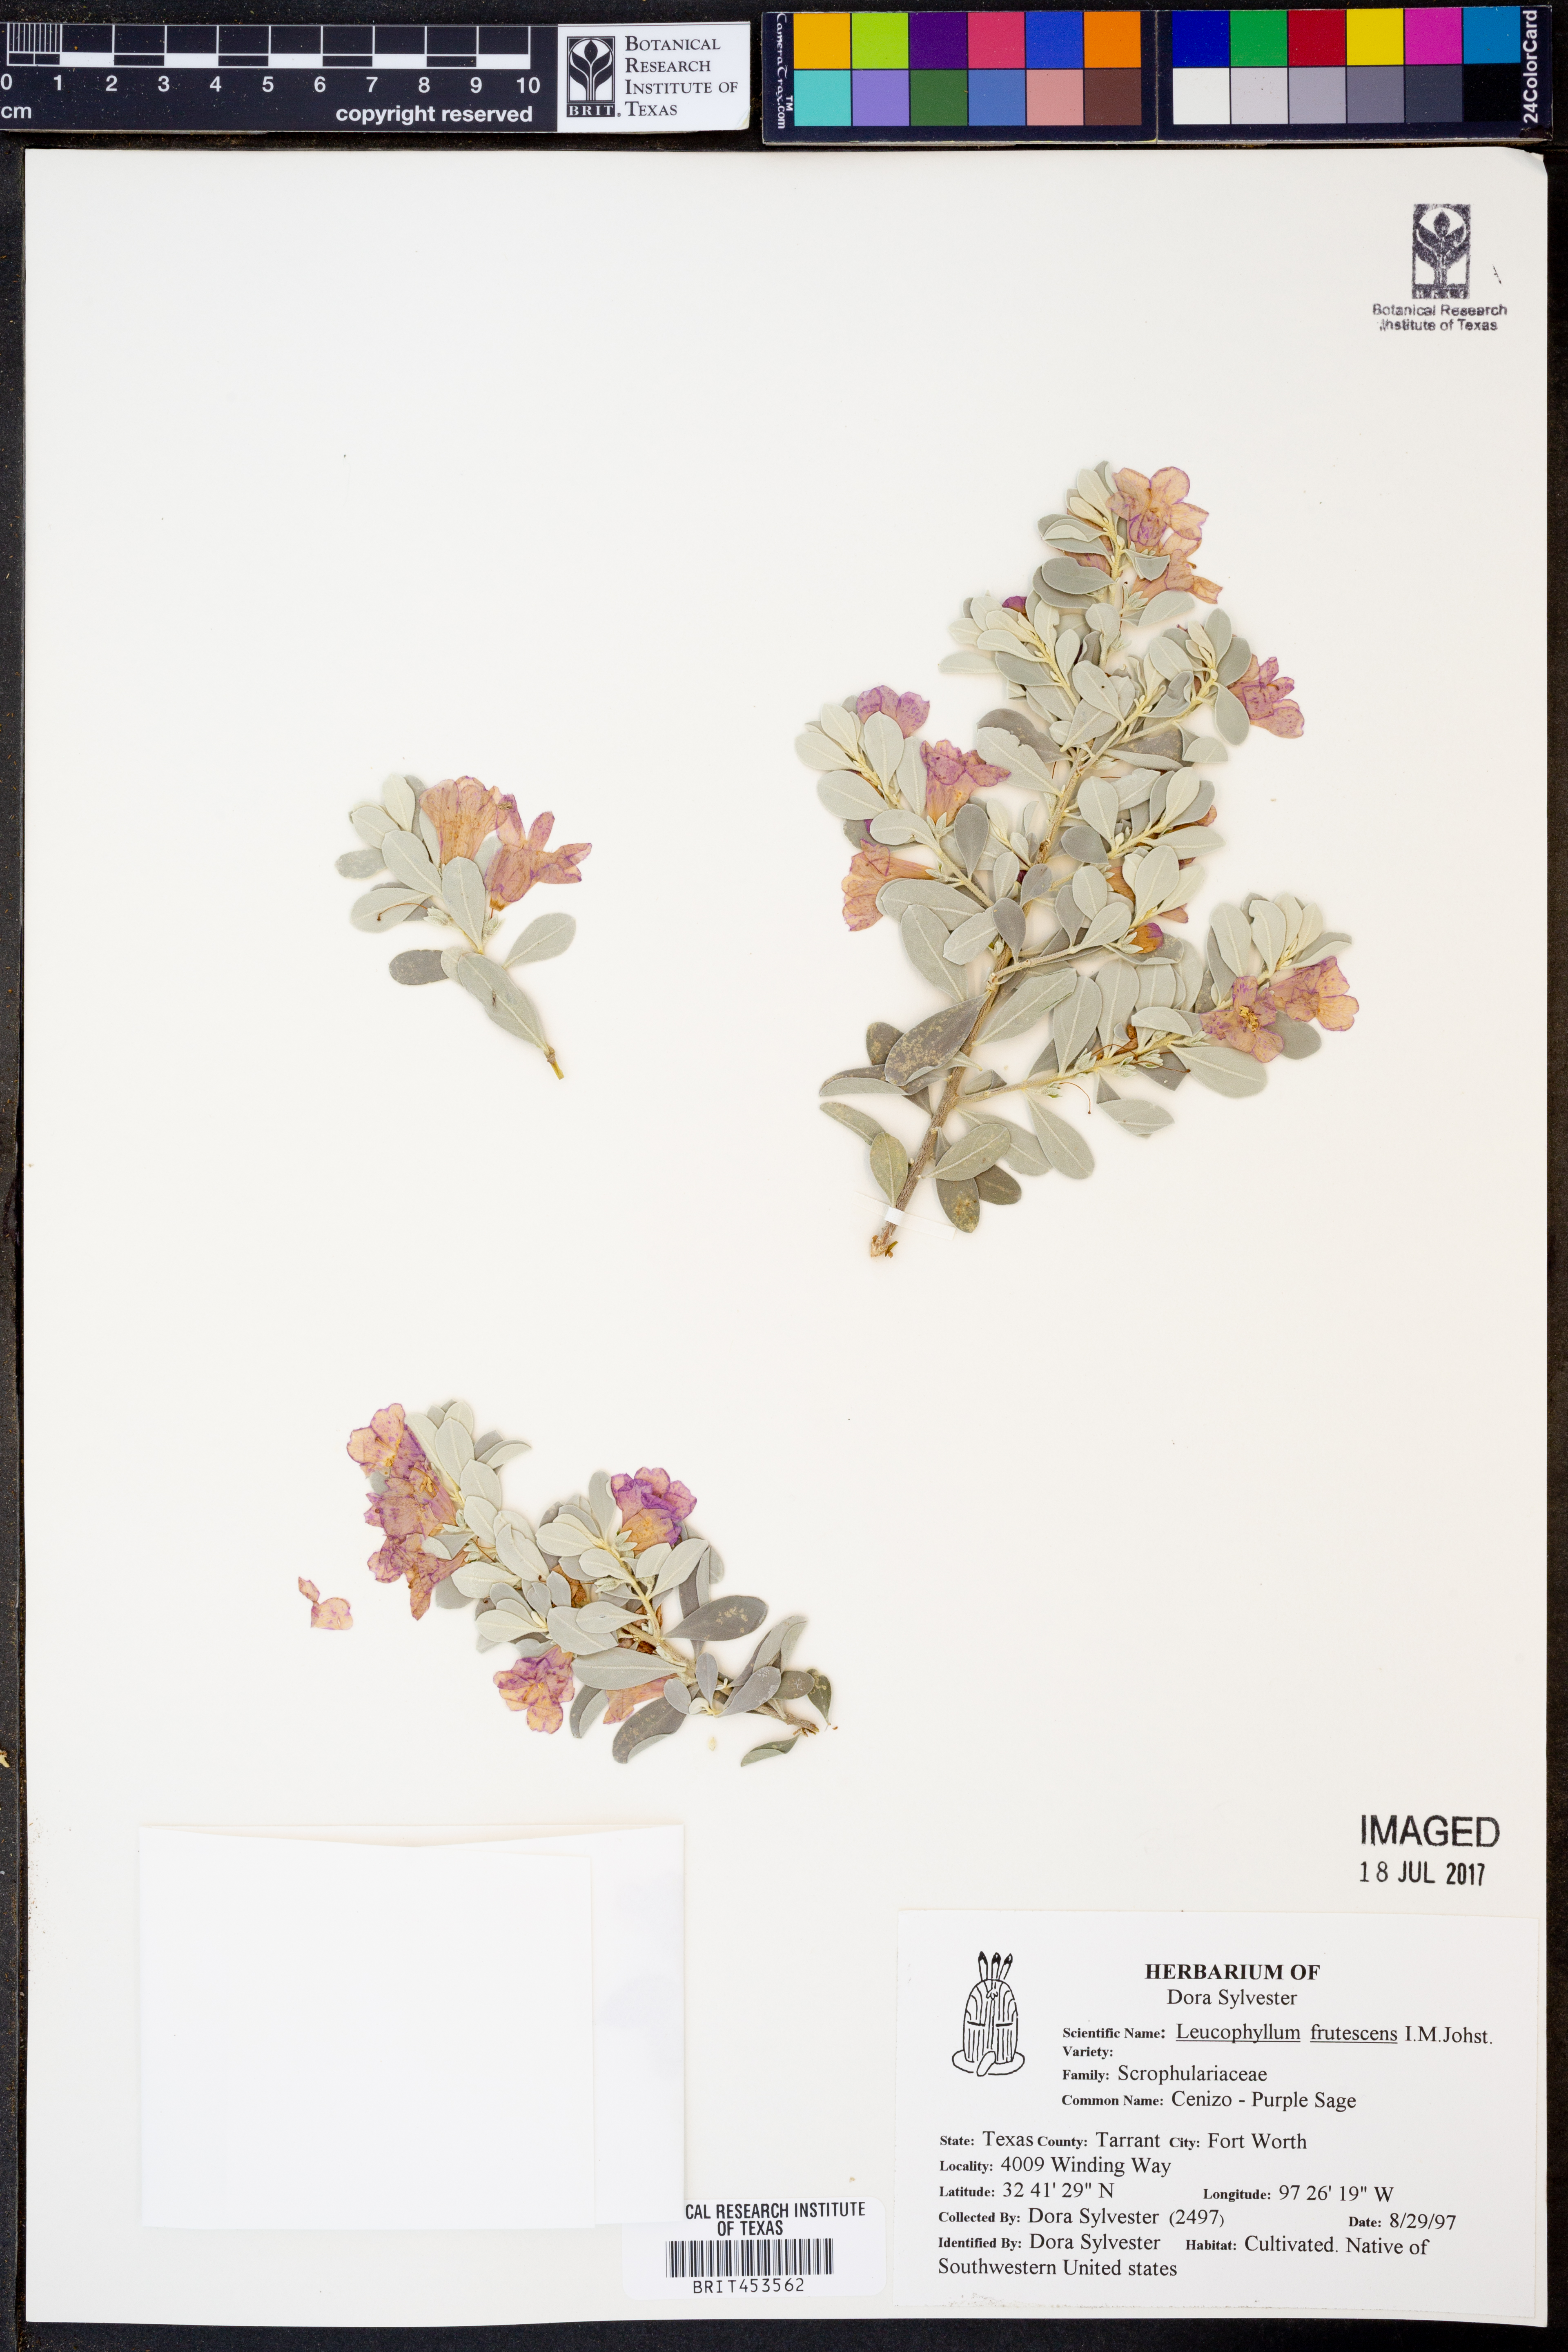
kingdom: Plantae
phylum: Tracheophyta
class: Magnoliopsida
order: Lamiales
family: Scrophulariaceae
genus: Leucophyllum
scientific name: Leucophyllum frutescens
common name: Texas silverleaf
